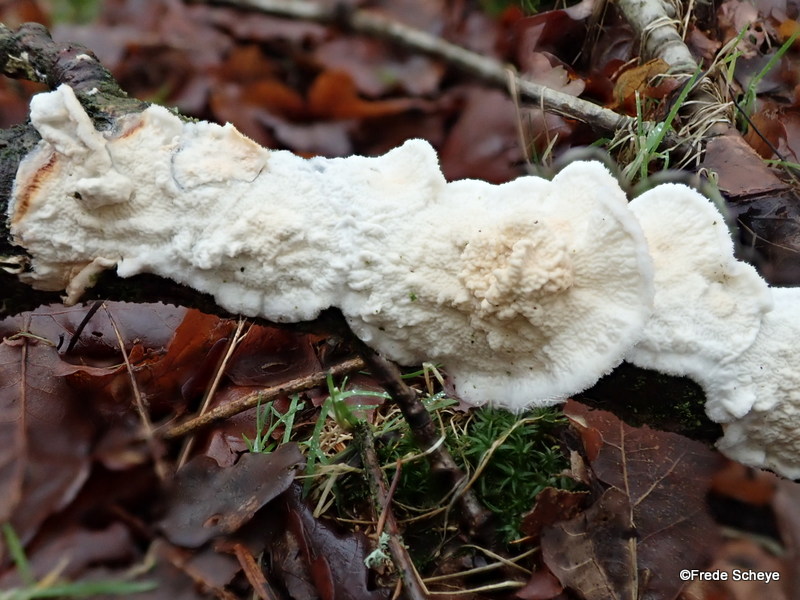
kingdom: Fungi
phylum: Basidiomycota
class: Agaricomycetes
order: Polyporales
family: Irpicaceae
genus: Byssomerulius
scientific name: Byssomerulius corium
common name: læder-åresvamp
